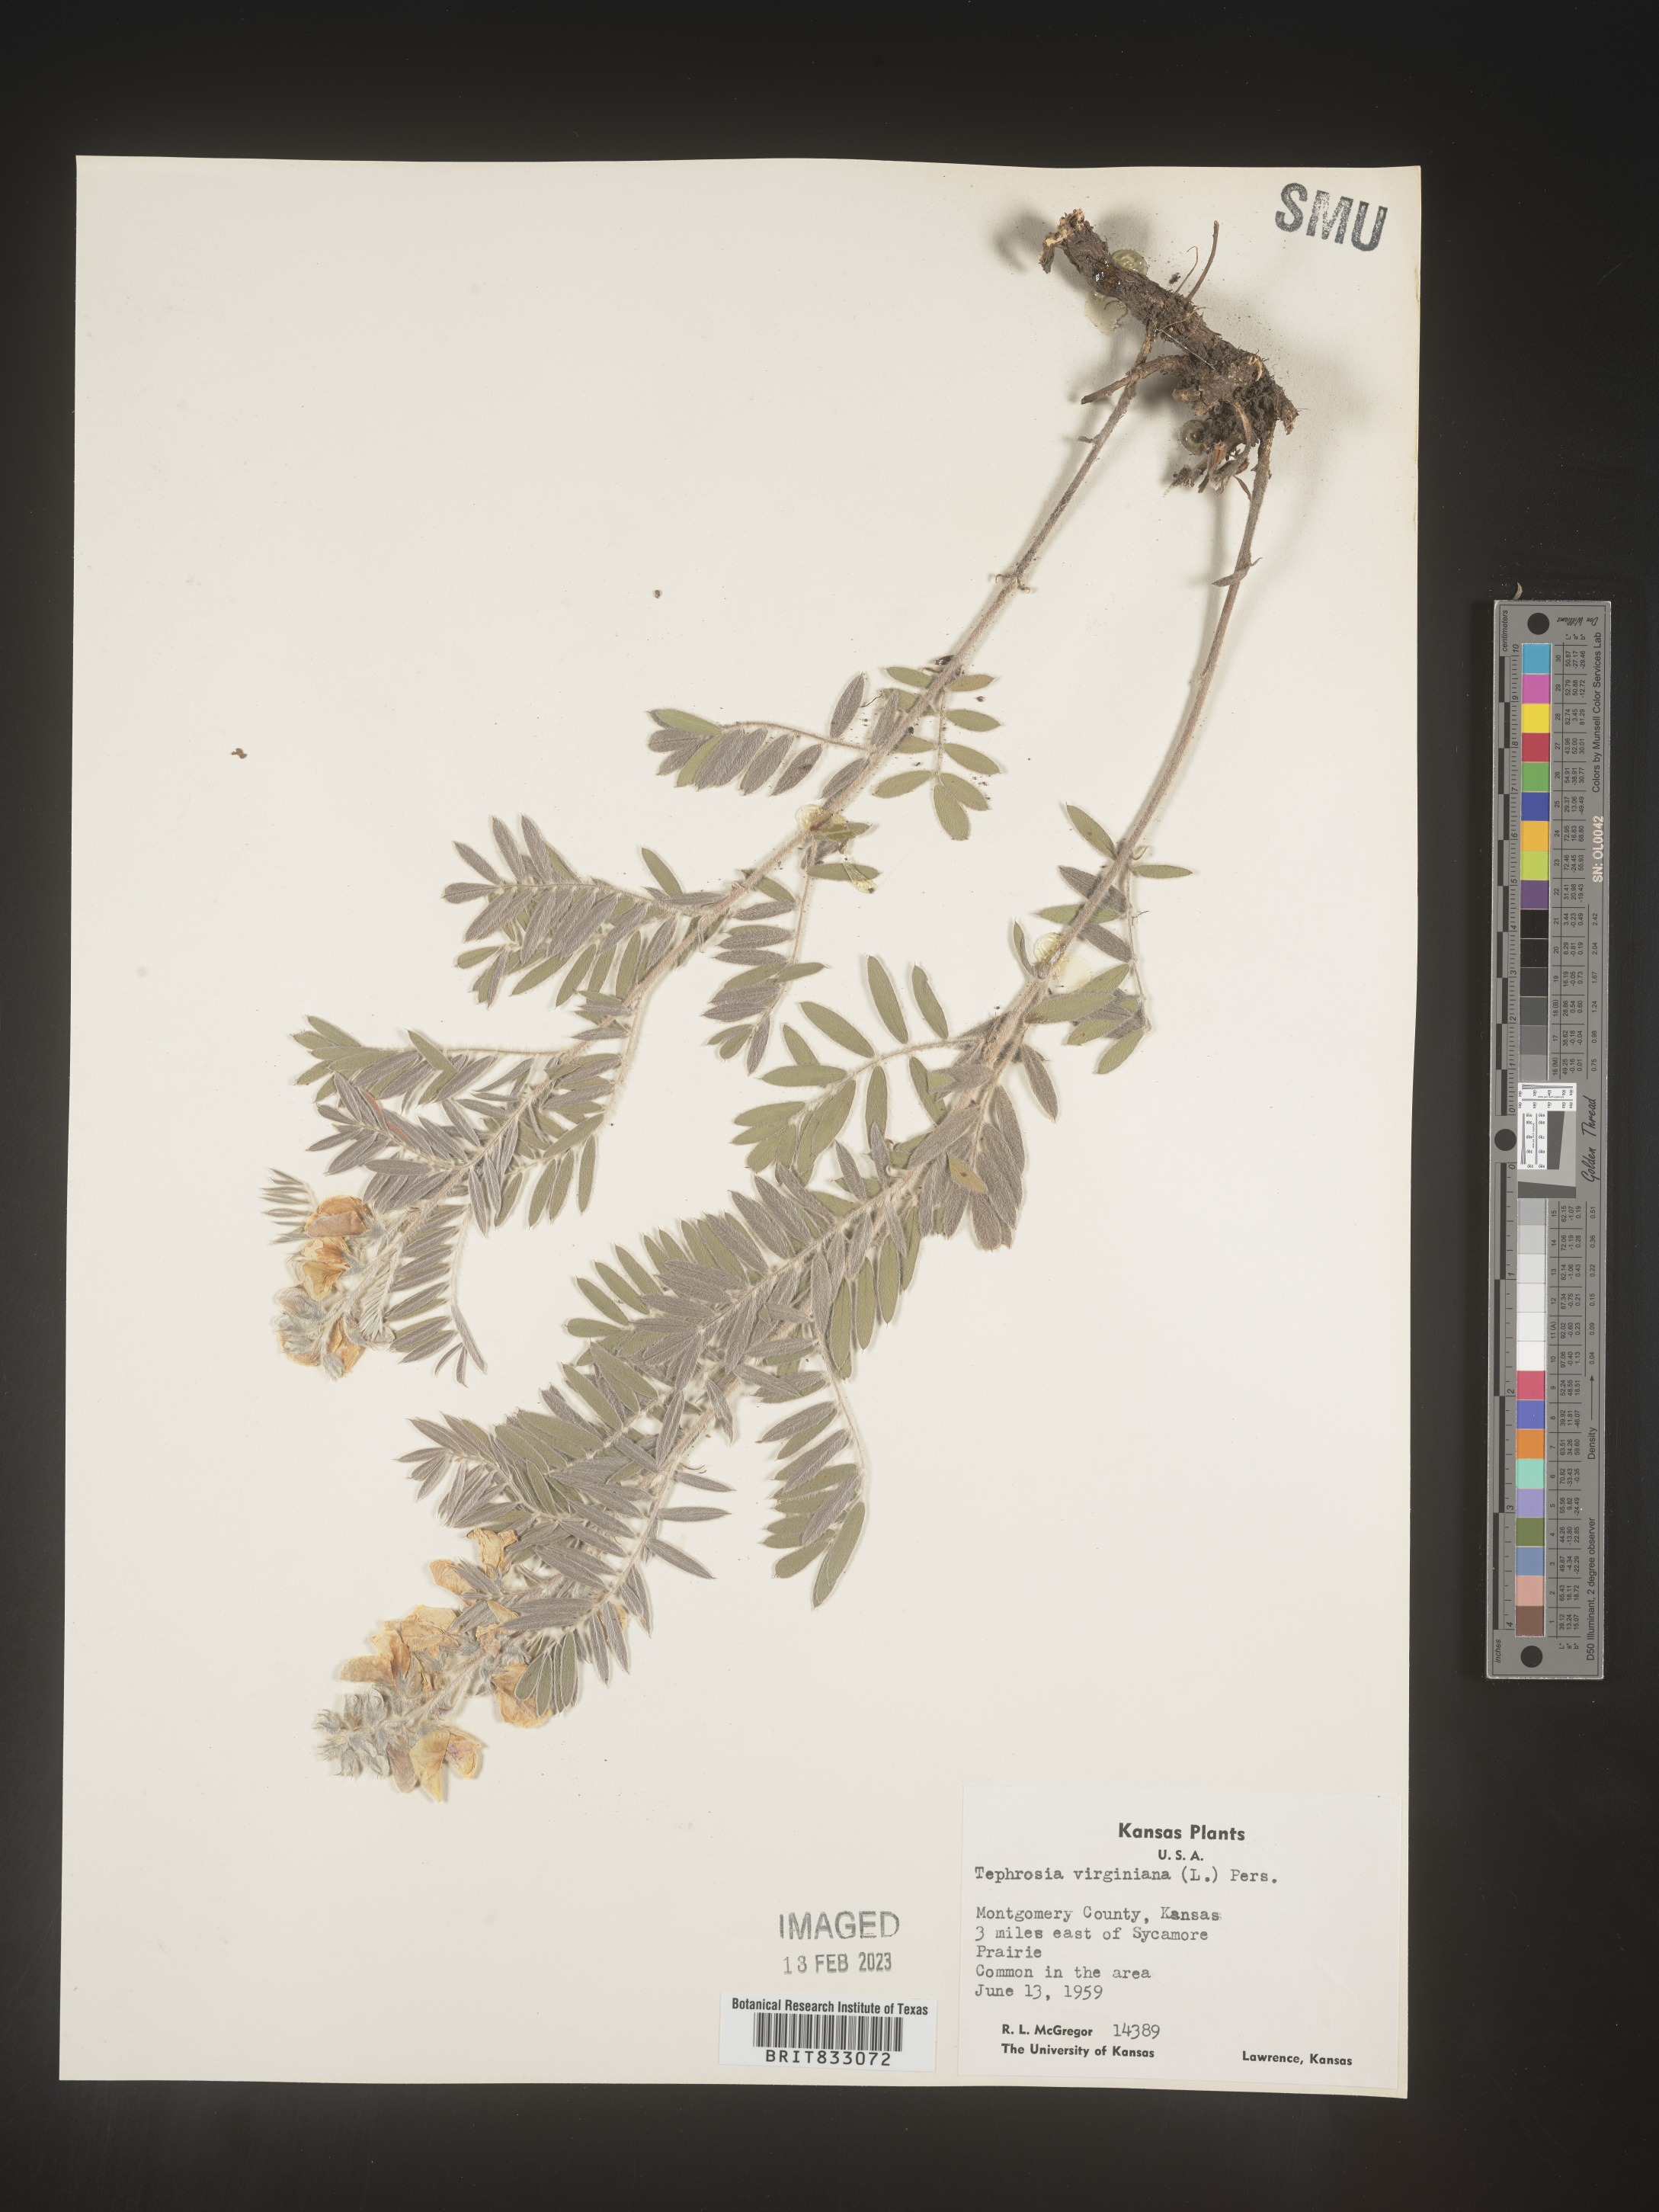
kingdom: Plantae
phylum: Tracheophyta
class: Magnoliopsida
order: Fabales
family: Fabaceae
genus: Tephrosia
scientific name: Tephrosia virginiana
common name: Rabbit-pea
